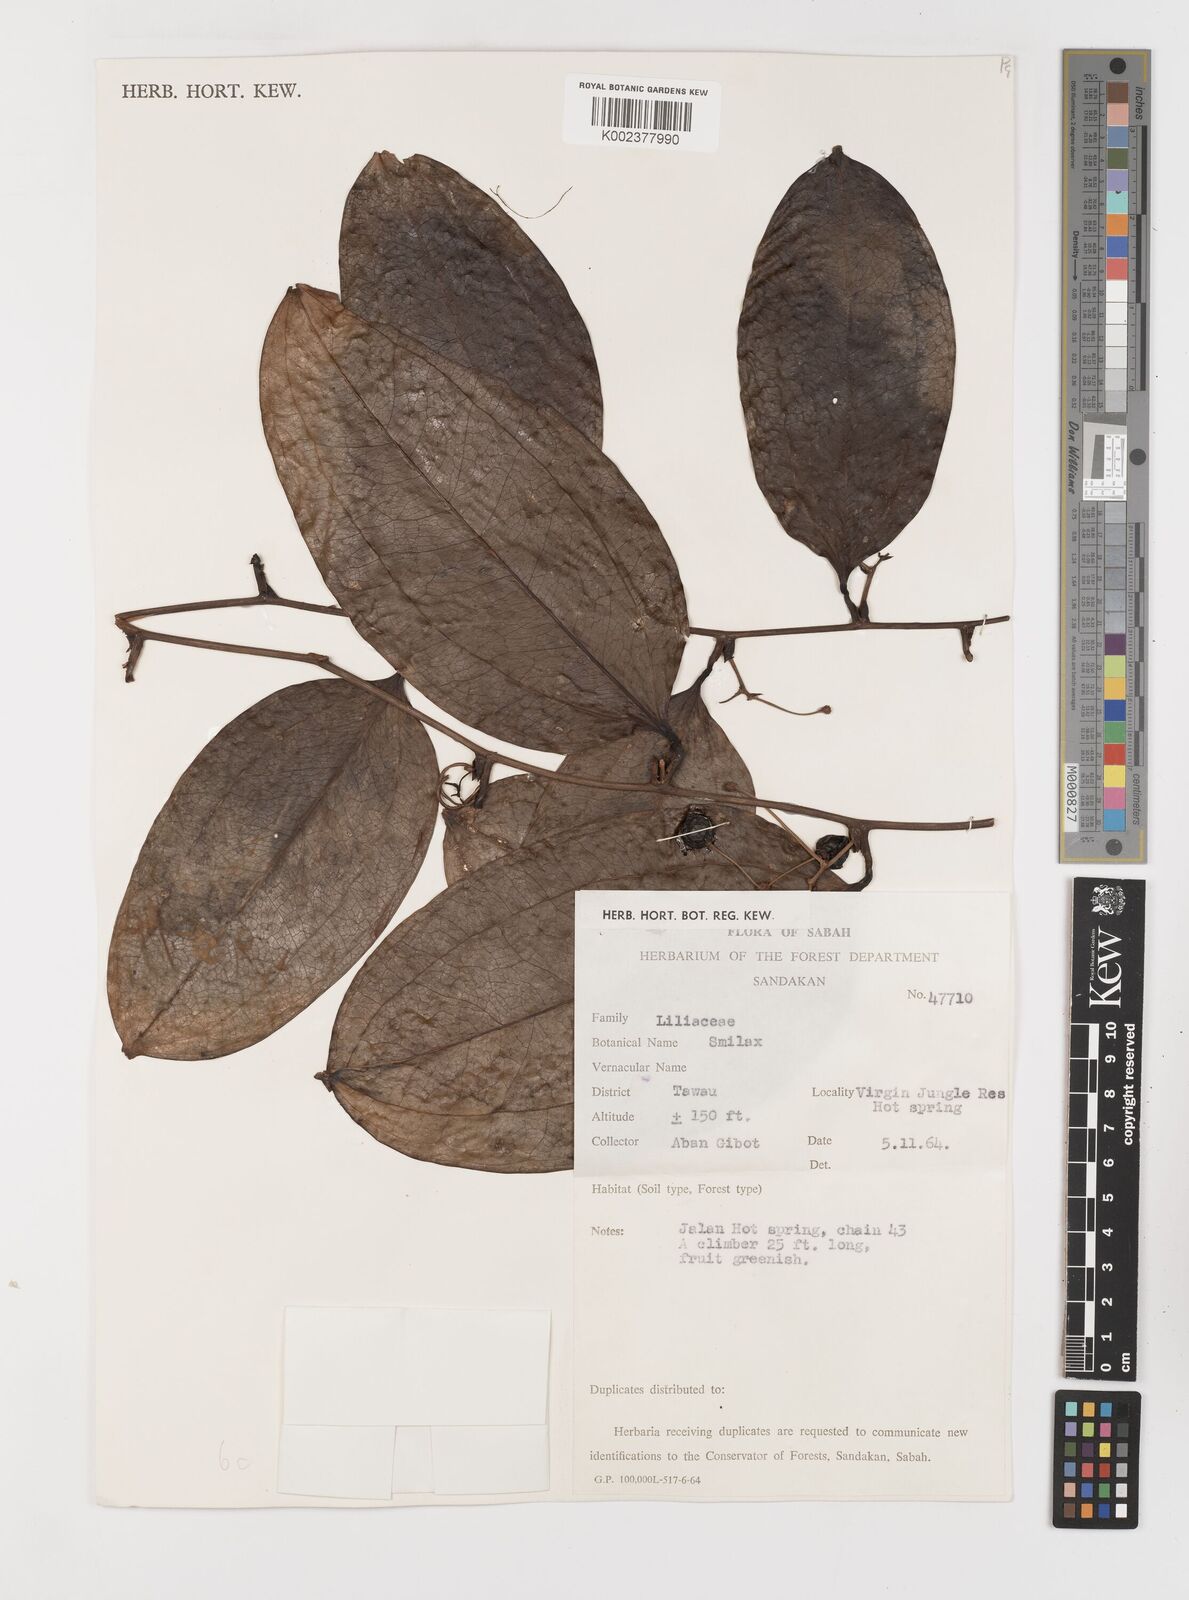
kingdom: Plantae
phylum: Tracheophyta
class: Liliopsida
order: Liliales
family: Smilacaceae
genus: Smilax
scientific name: Smilax
